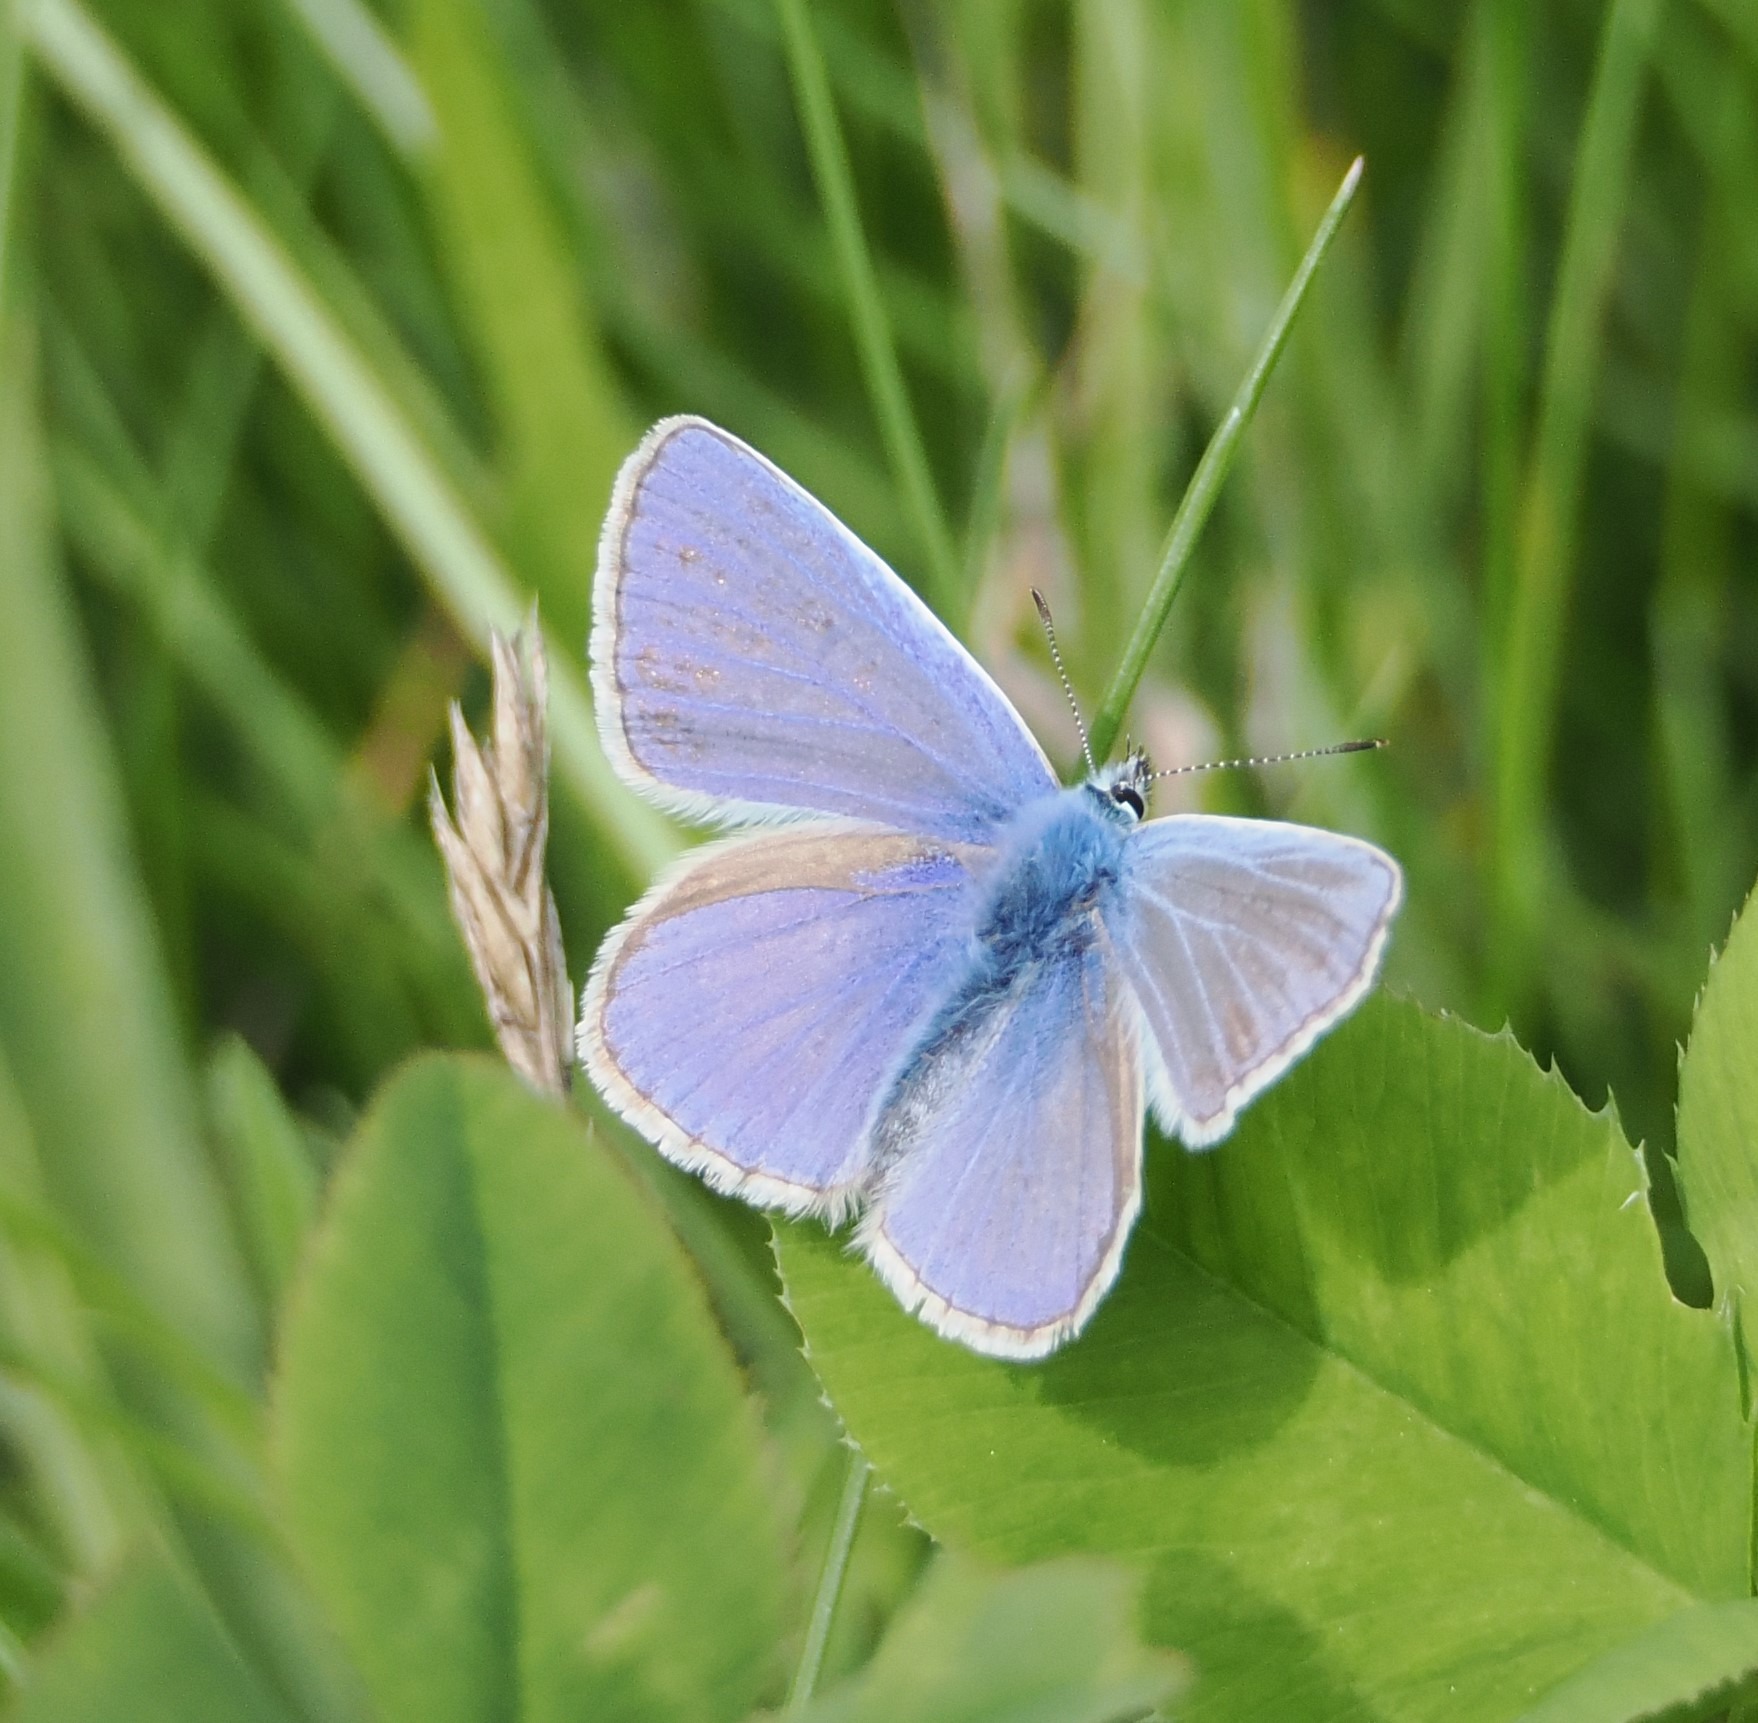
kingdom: Animalia
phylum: Arthropoda
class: Insecta
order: Lepidoptera
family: Lycaenidae
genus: Polyommatus
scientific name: Polyommatus icarus
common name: Almindelig blåfugl
